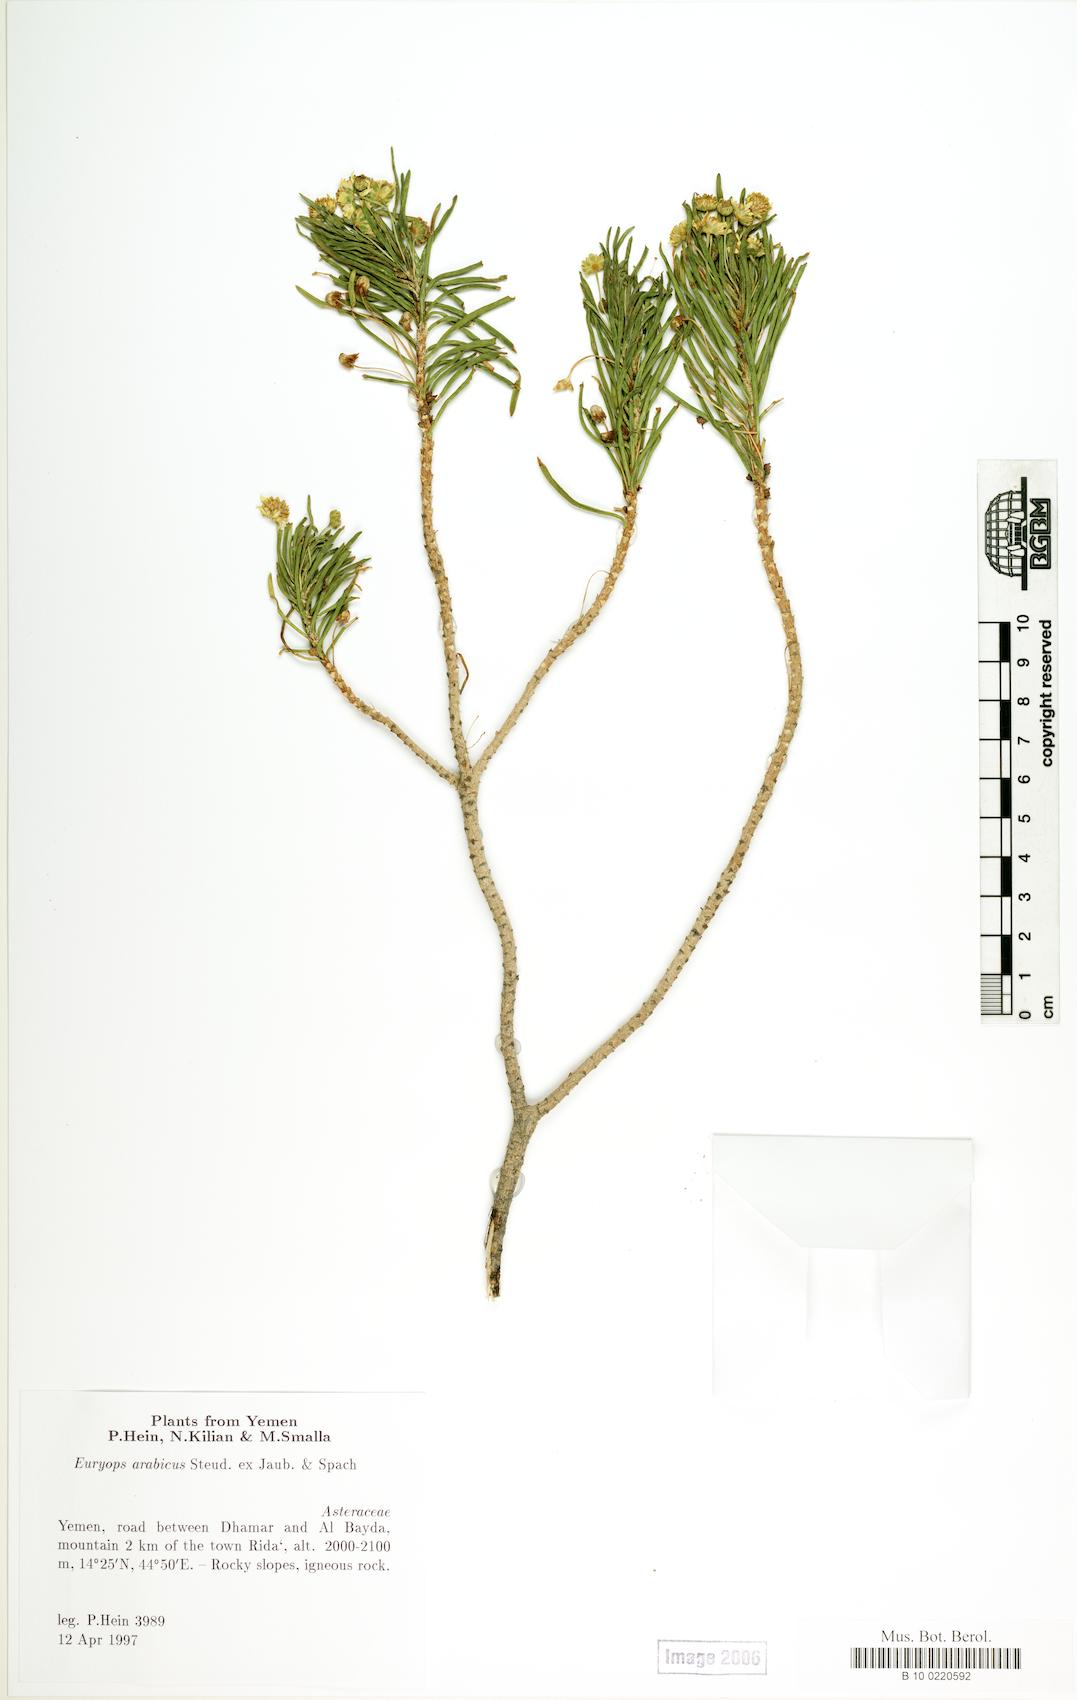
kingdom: Plantae
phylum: Tracheophyta
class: Magnoliopsida
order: Caryophyllales
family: Caryophyllaceae
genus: Stellaria
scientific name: Stellaria apetala
